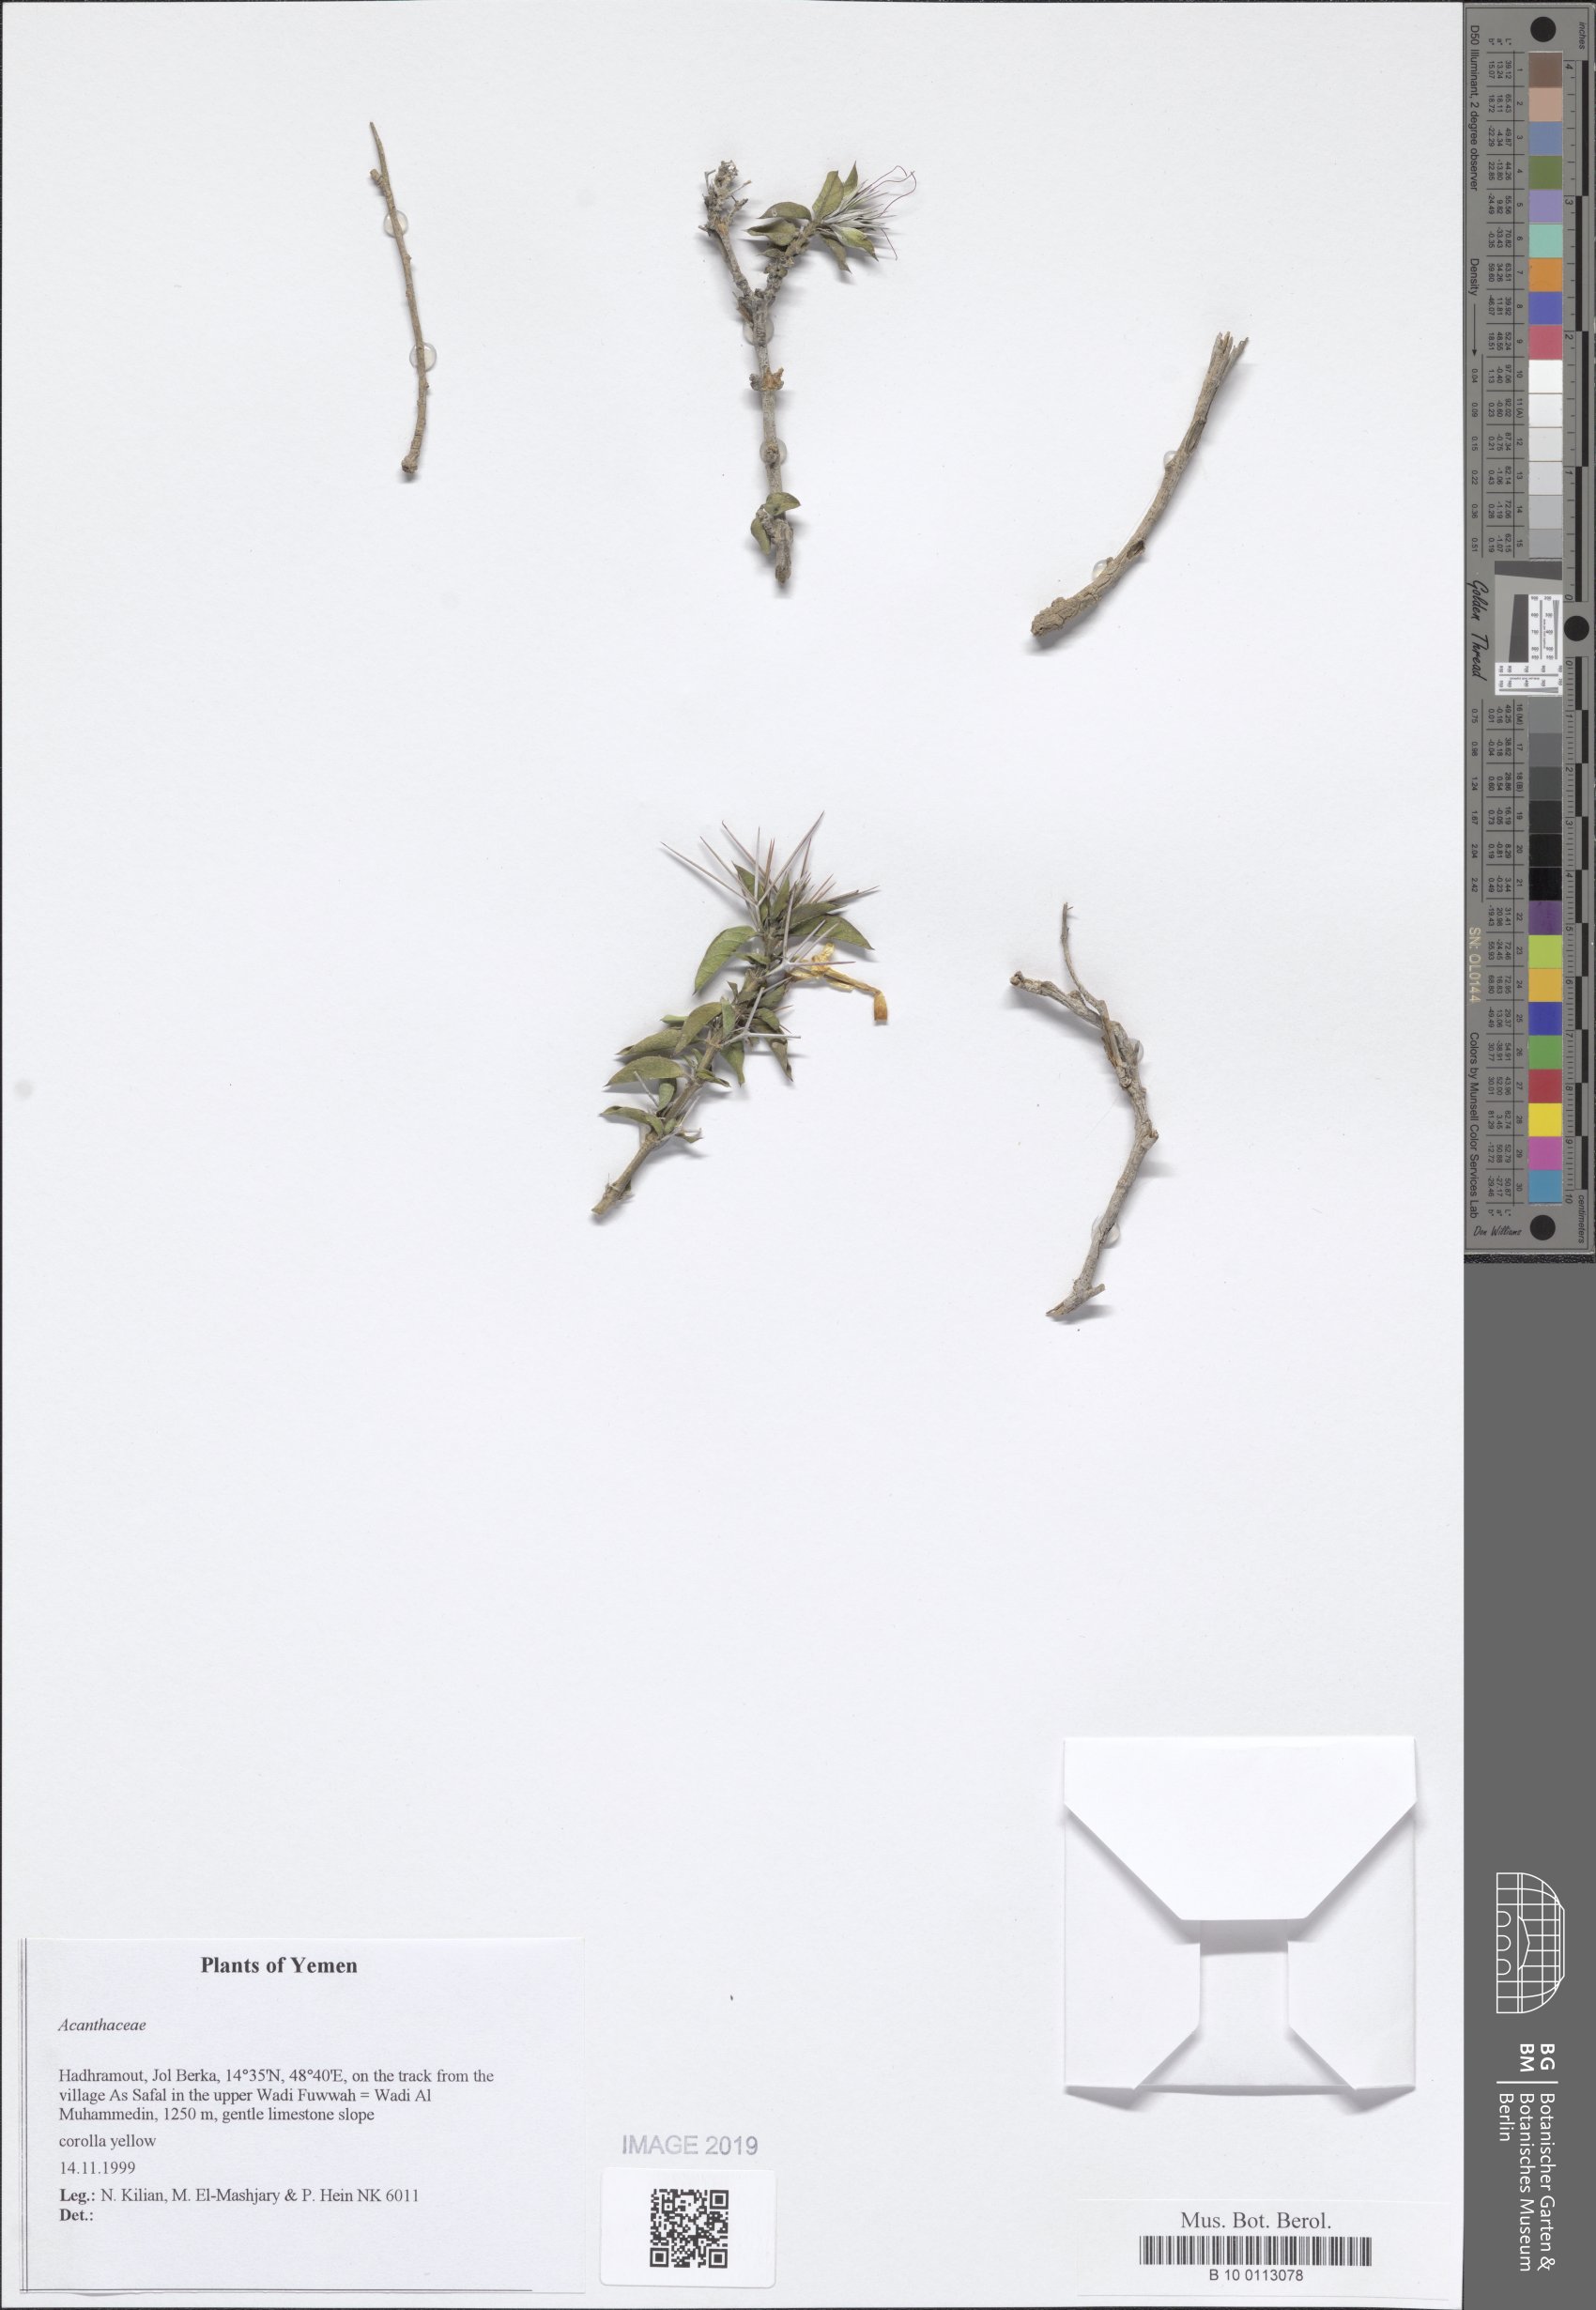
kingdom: Plantae
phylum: Tracheophyta
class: Magnoliopsida
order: Lamiales
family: Acanthaceae
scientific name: Acanthaceae
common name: Acanthaceae
